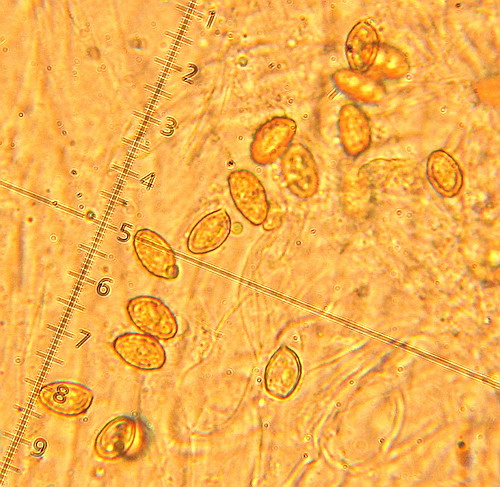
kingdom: Fungi
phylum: Basidiomycota
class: Agaricomycetes
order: Agaricales
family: Cortinariaceae
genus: Thaxterogaster
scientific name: Thaxterogaster multiformis
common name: honning-slørhat
